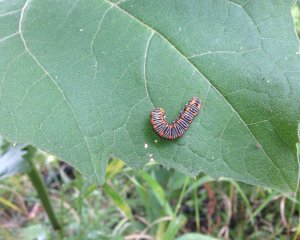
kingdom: Animalia
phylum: Arthropoda
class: Insecta
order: Lepidoptera
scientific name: Lepidoptera
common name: Butterflies
